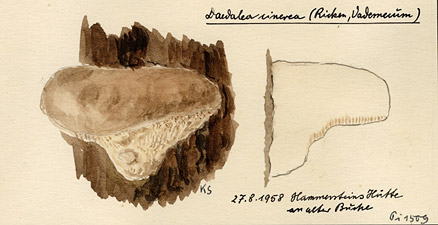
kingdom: Plantae
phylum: Tracheophyta
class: Magnoliopsida
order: Fagales
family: Fagaceae
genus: Fagus
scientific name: Fagus
